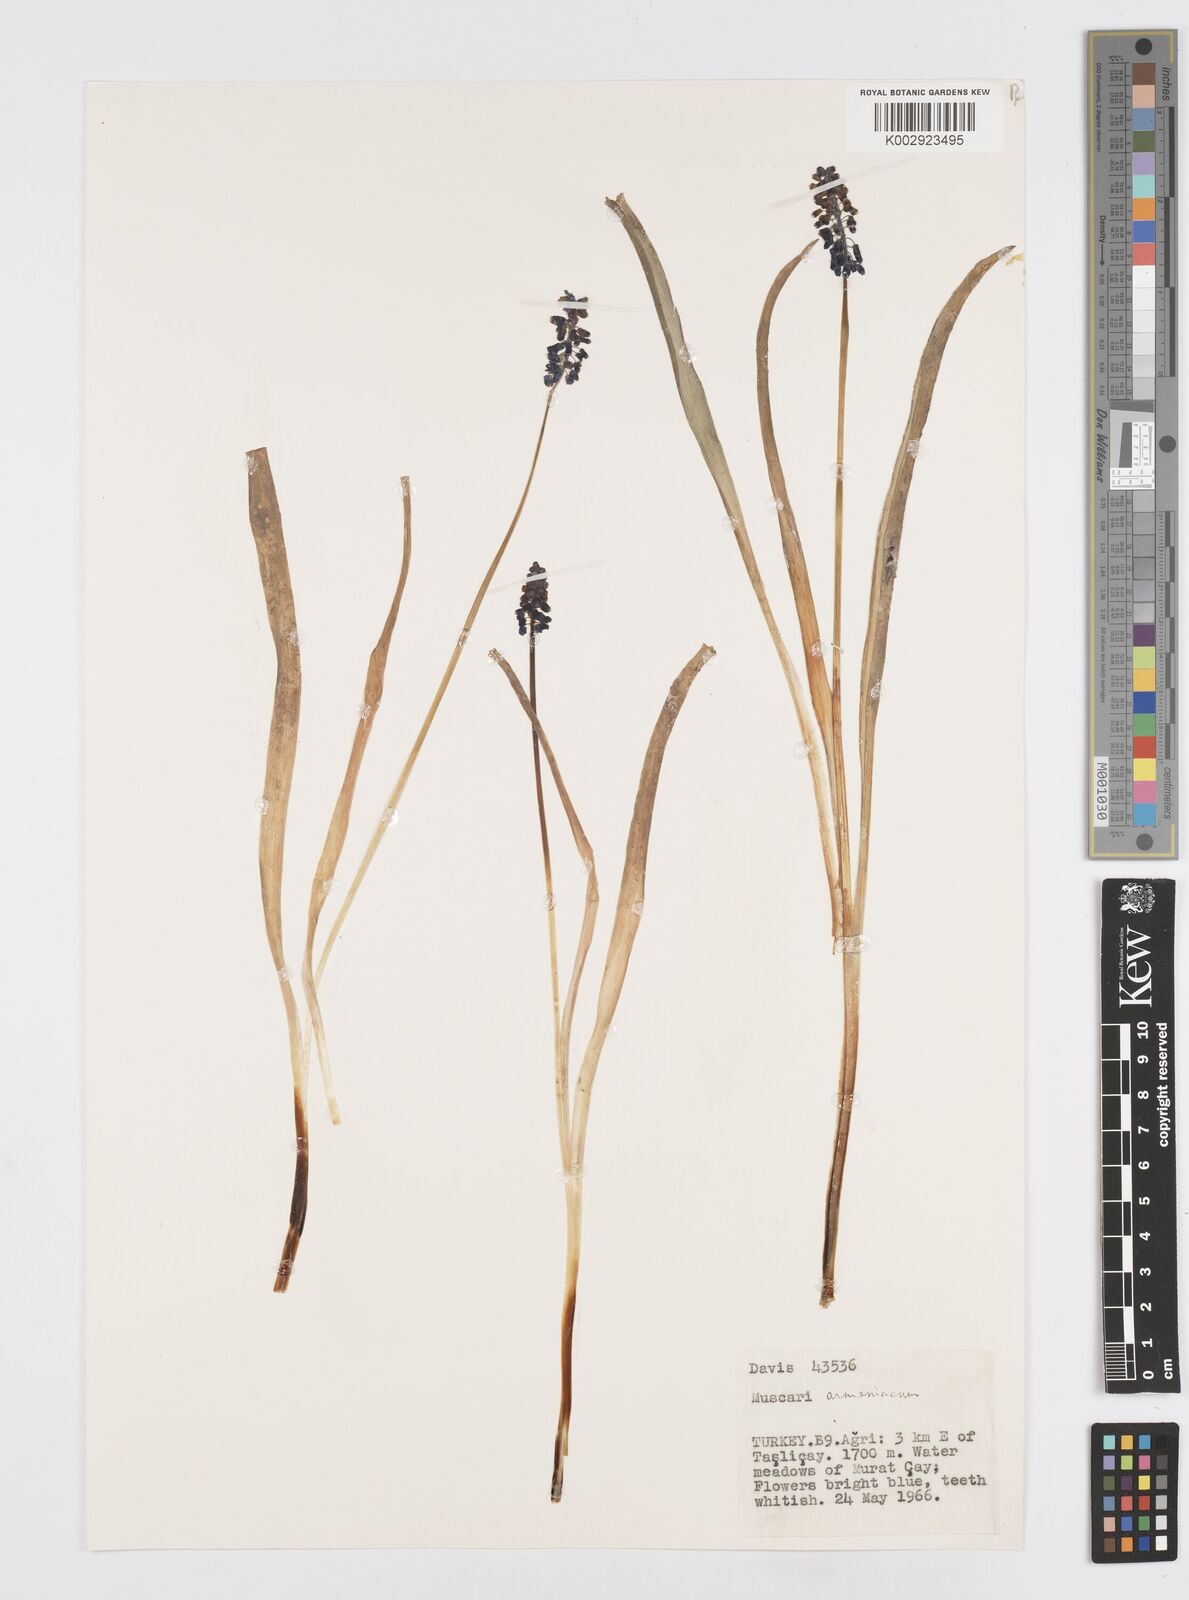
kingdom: Plantae
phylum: Tracheophyta
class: Liliopsida
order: Asparagales
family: Asparagaceae
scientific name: Asparagaceae
